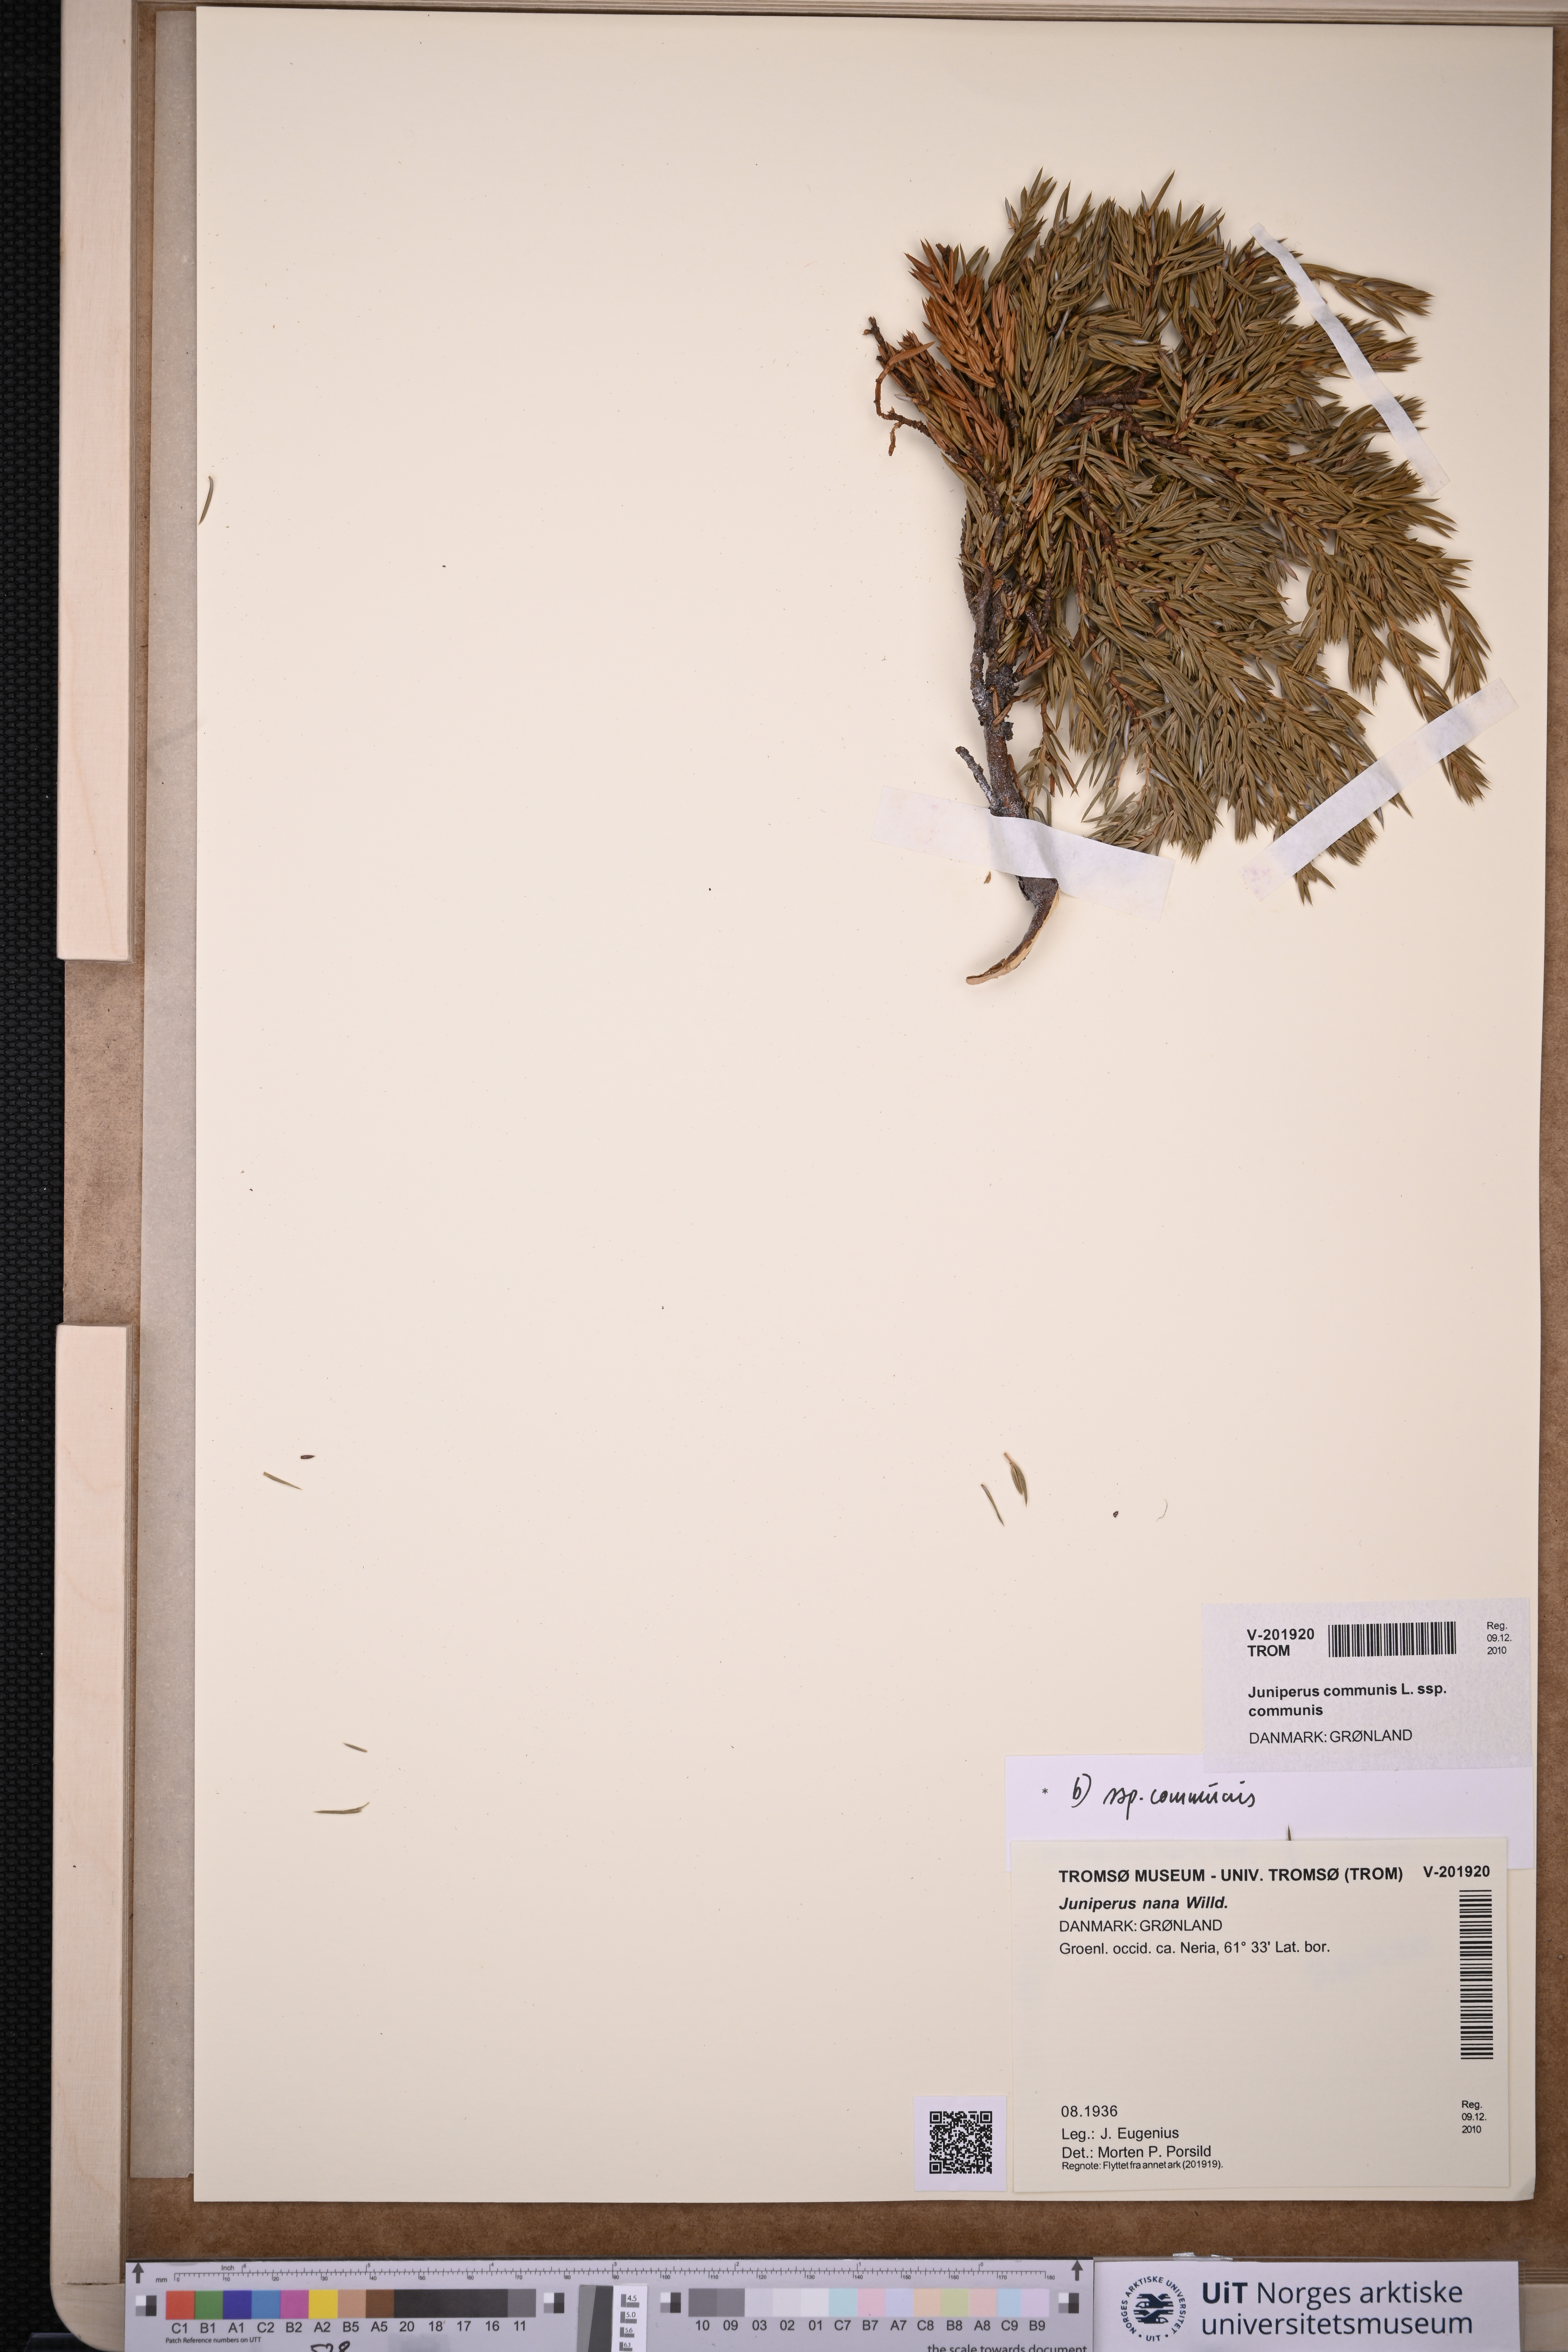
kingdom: Plantae
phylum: Tracheophyta
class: Pinopsida
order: Pinales
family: Cupressaceae
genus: Juniperus
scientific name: Juniperus communis
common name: Common juniper
